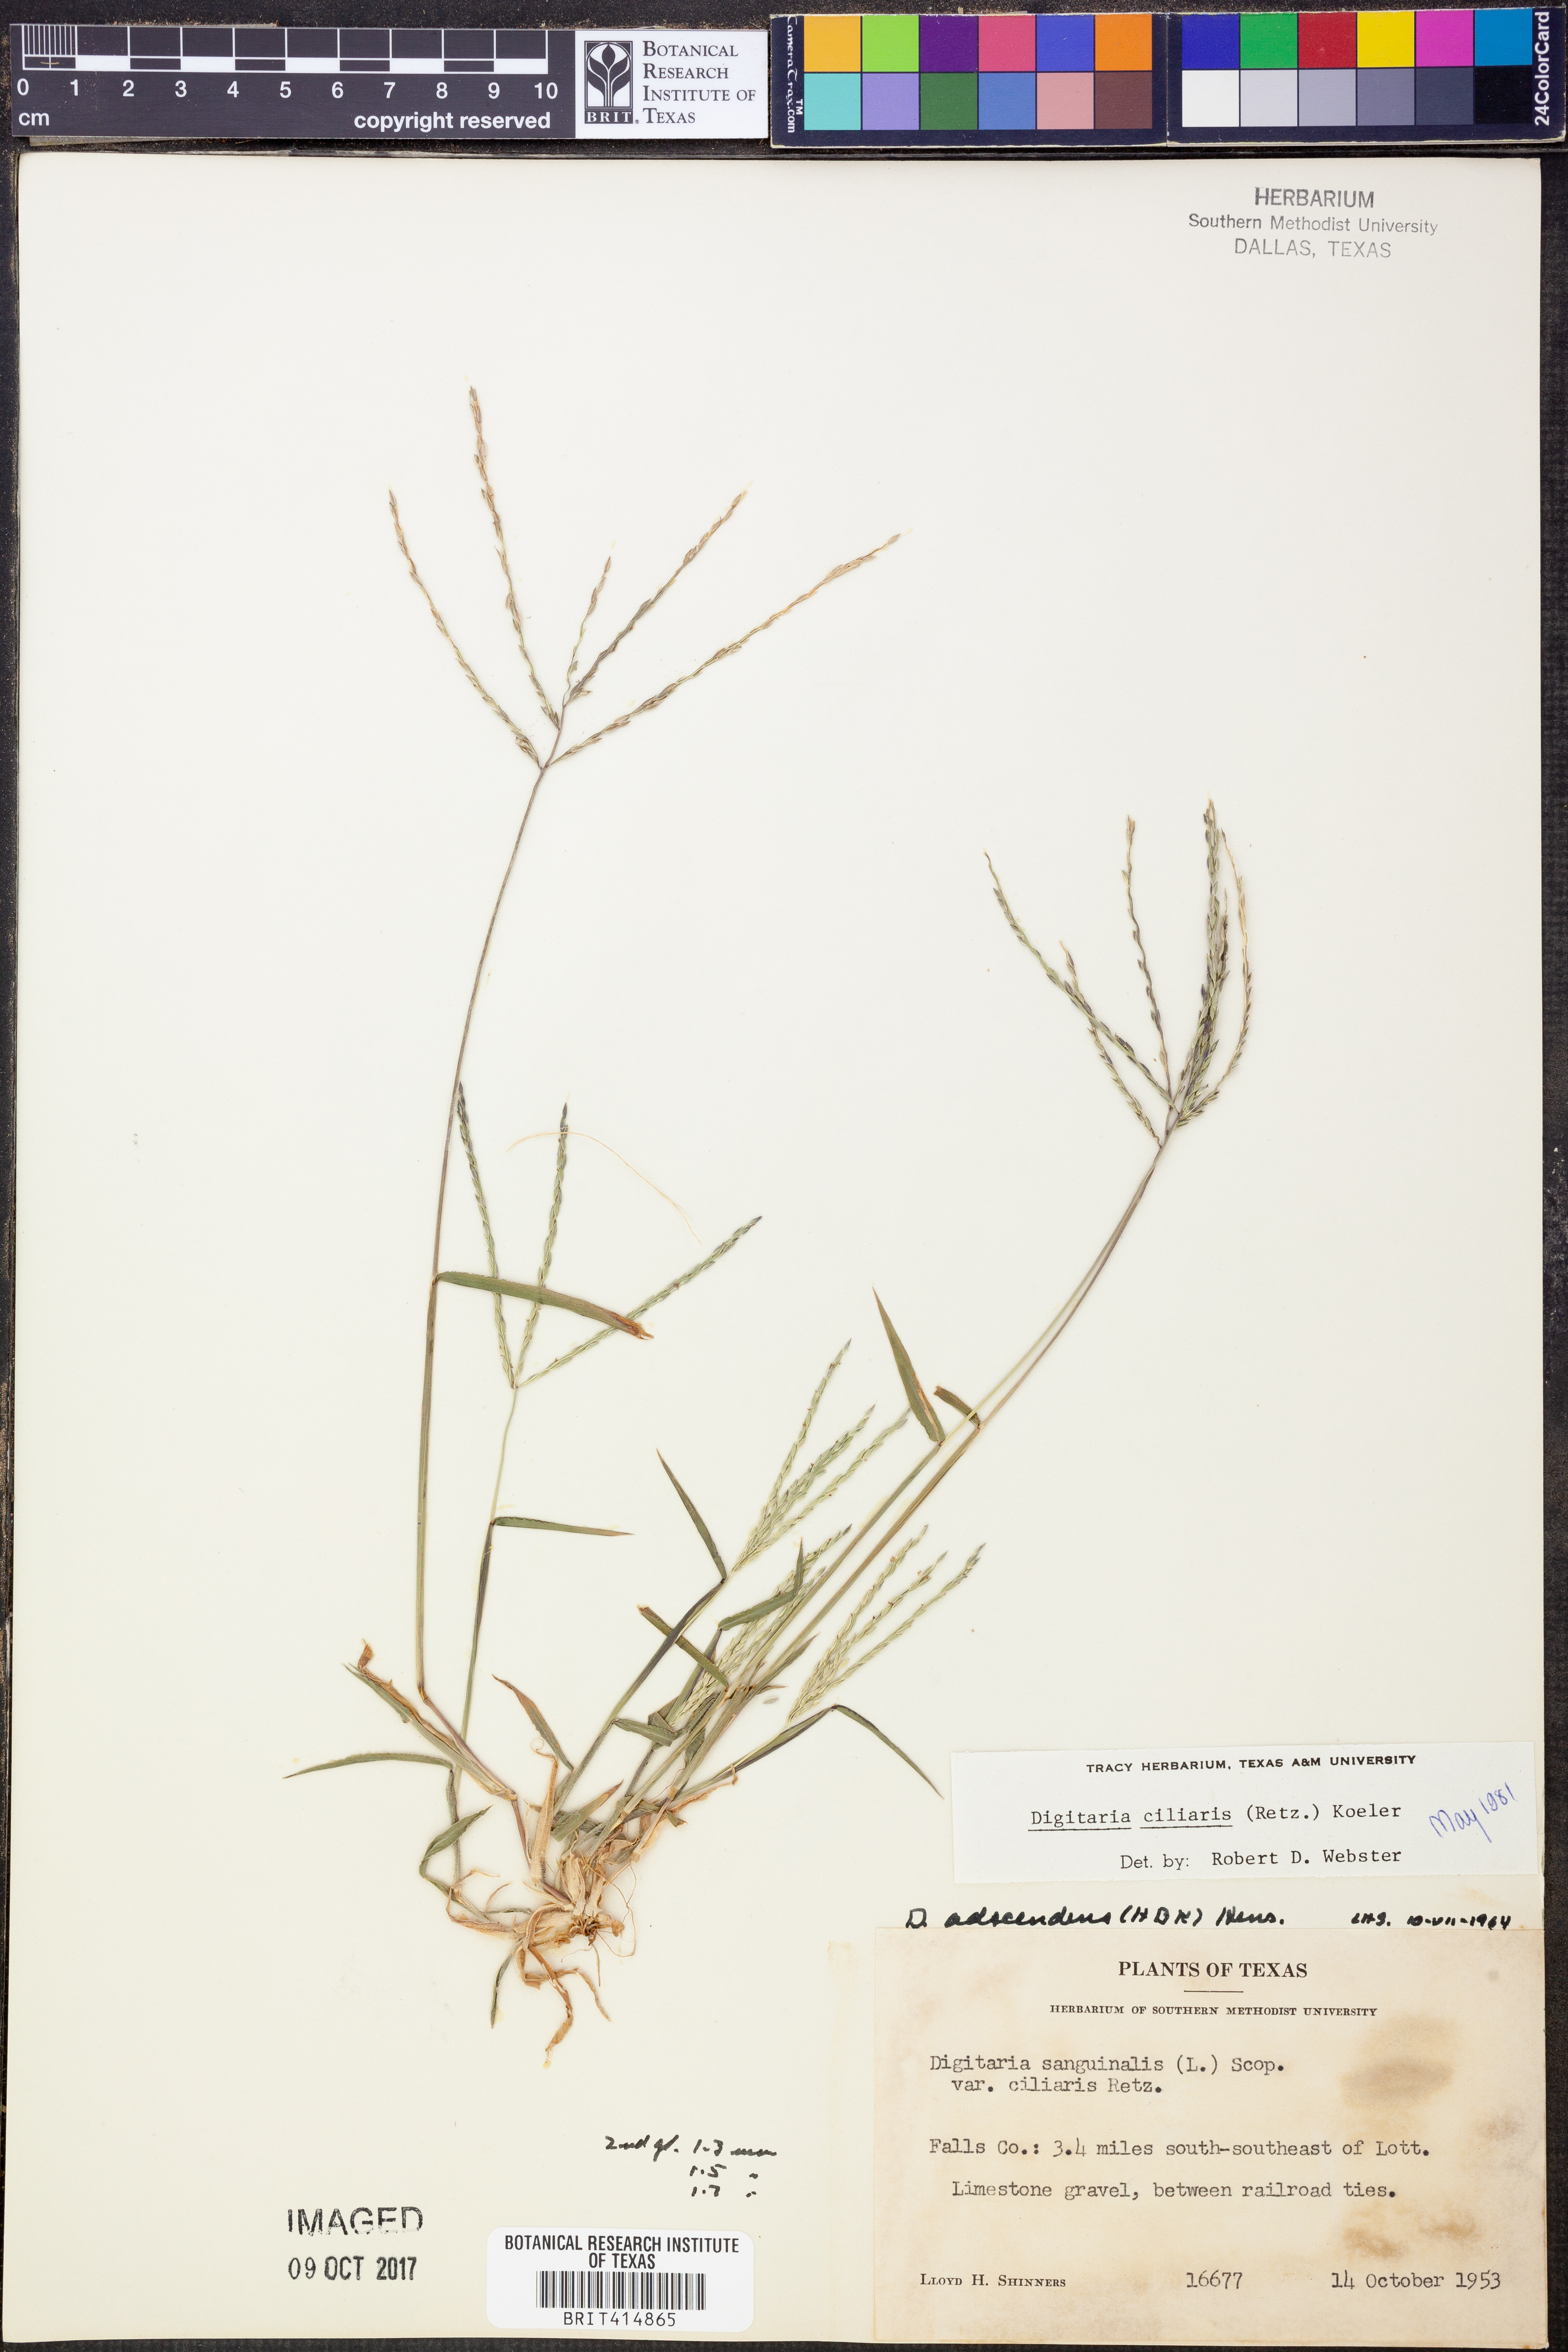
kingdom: Plantae
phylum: Tracheophyta
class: Liliopsida
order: Poales
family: Poaceae
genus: Digitaria
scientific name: Digitaria ciliaris
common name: Tropical finger-grass
